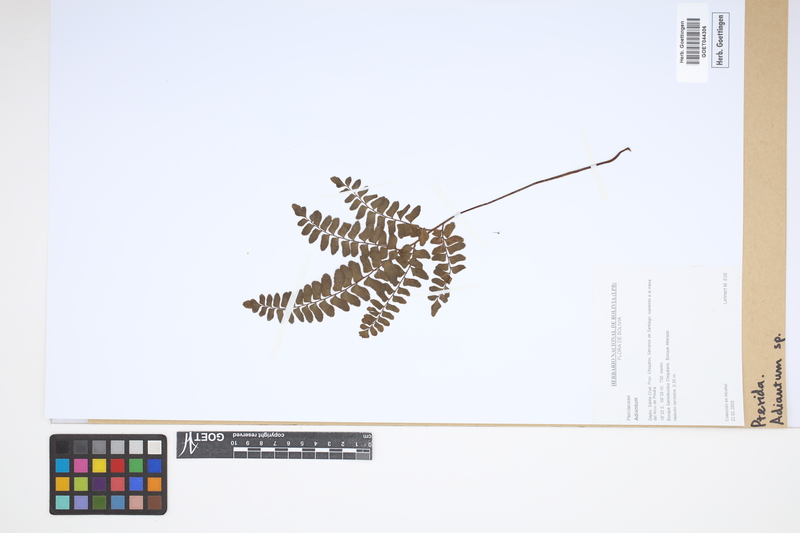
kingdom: Plantae
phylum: Tracheophyta
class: Polypodiopsida
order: Polypodiales
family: Pteridaceae
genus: Adiantum
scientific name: Adiantum
